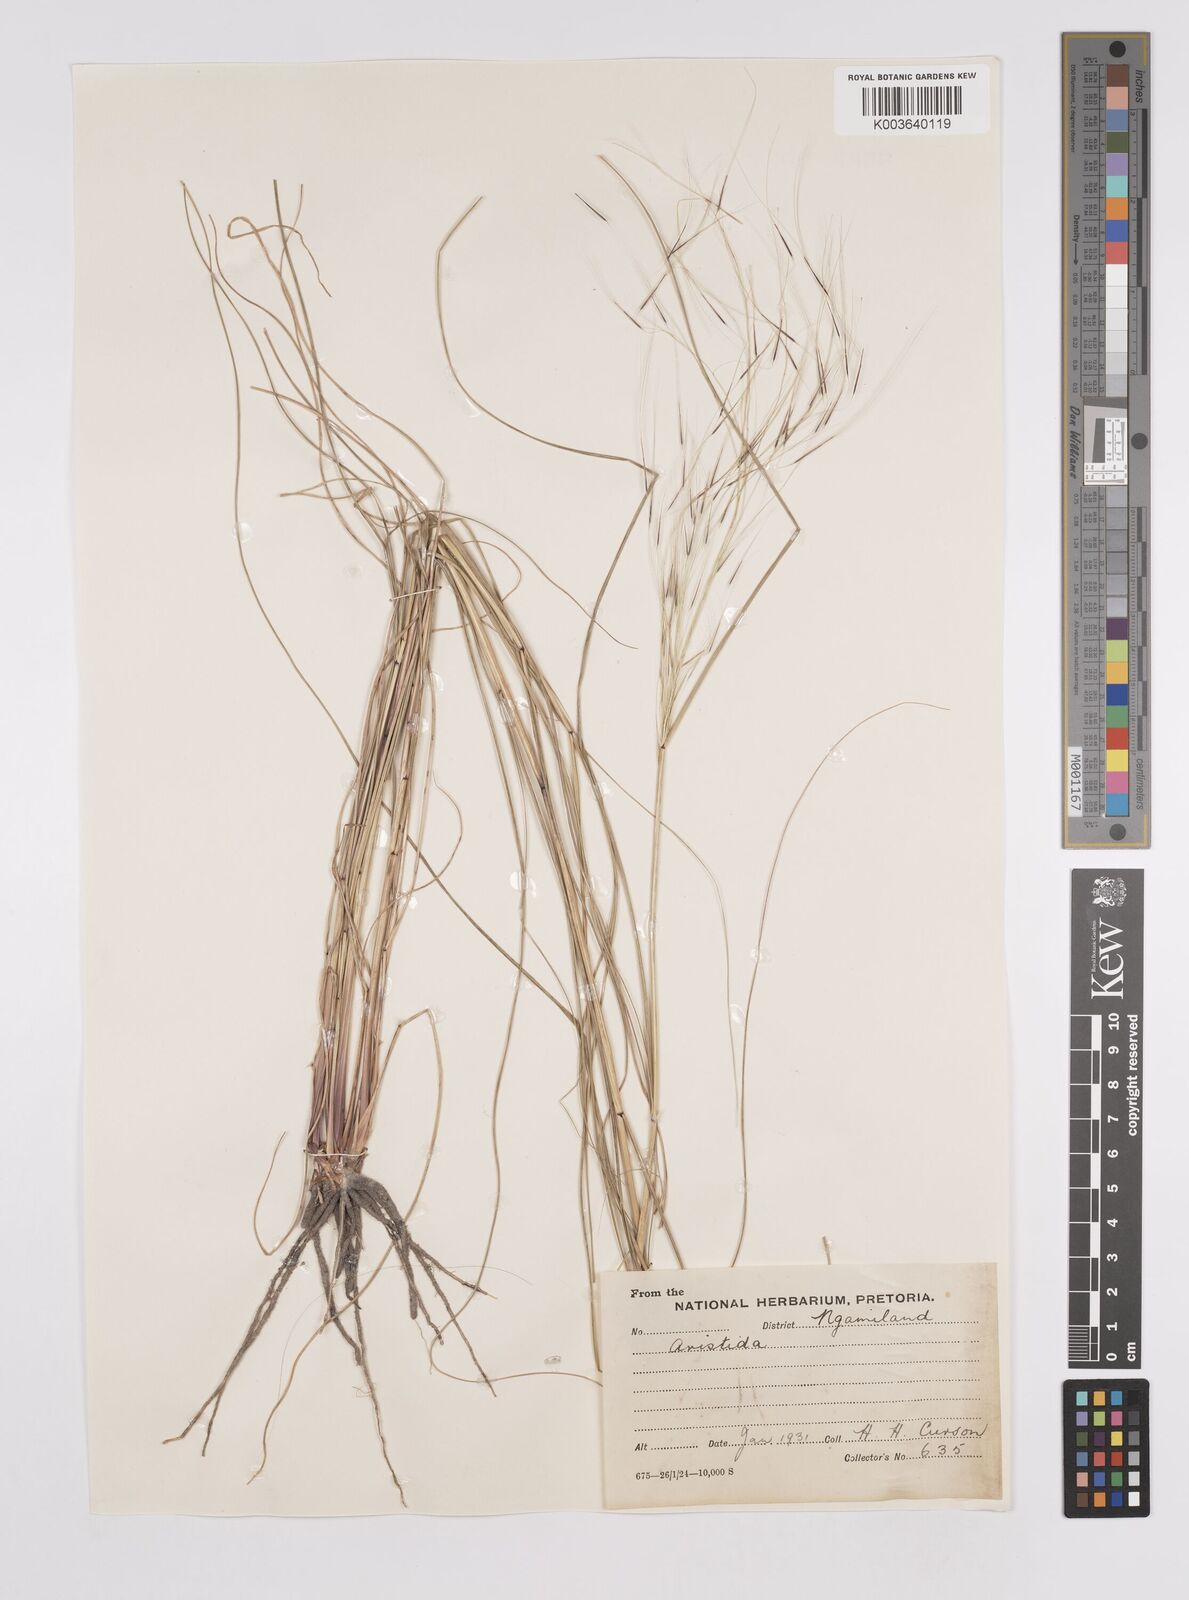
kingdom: Plantae
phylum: Tracheophyta
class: Liliopsida
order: Poales
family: Poaceae
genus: Aristida
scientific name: Aristida stipitata
